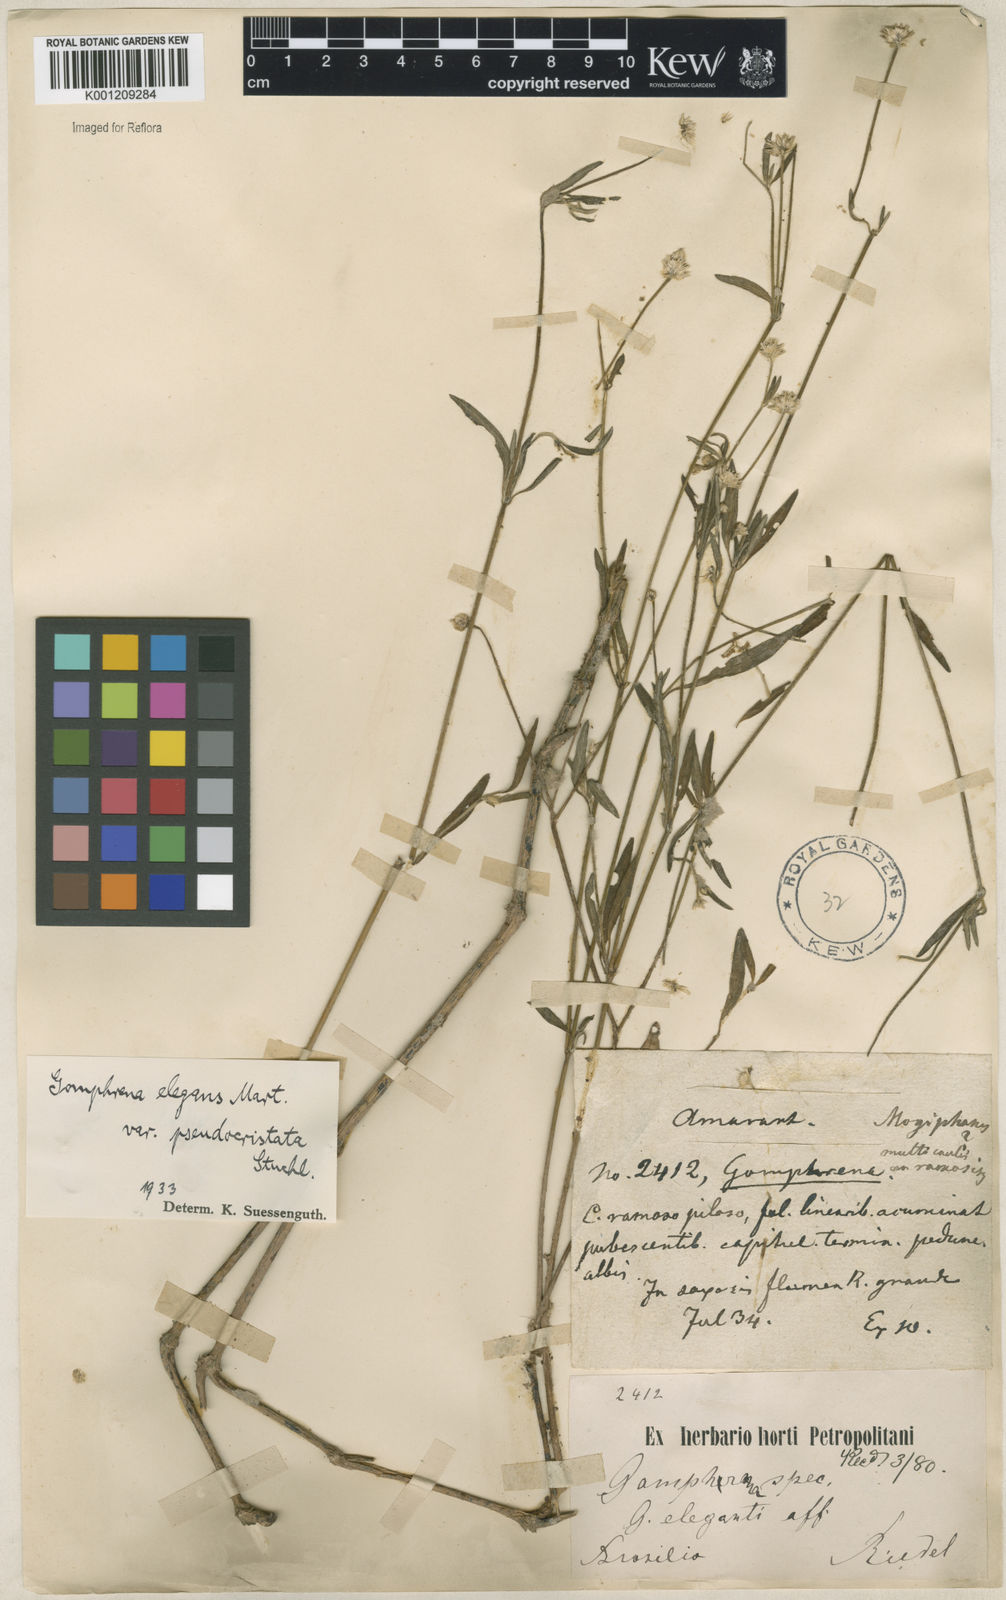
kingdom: Plantae
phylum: Tracheophyta
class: Magnoliopsida
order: Caryophyllales
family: Amaranthaceae
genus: Gomphrena
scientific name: Gomphrena elegans
